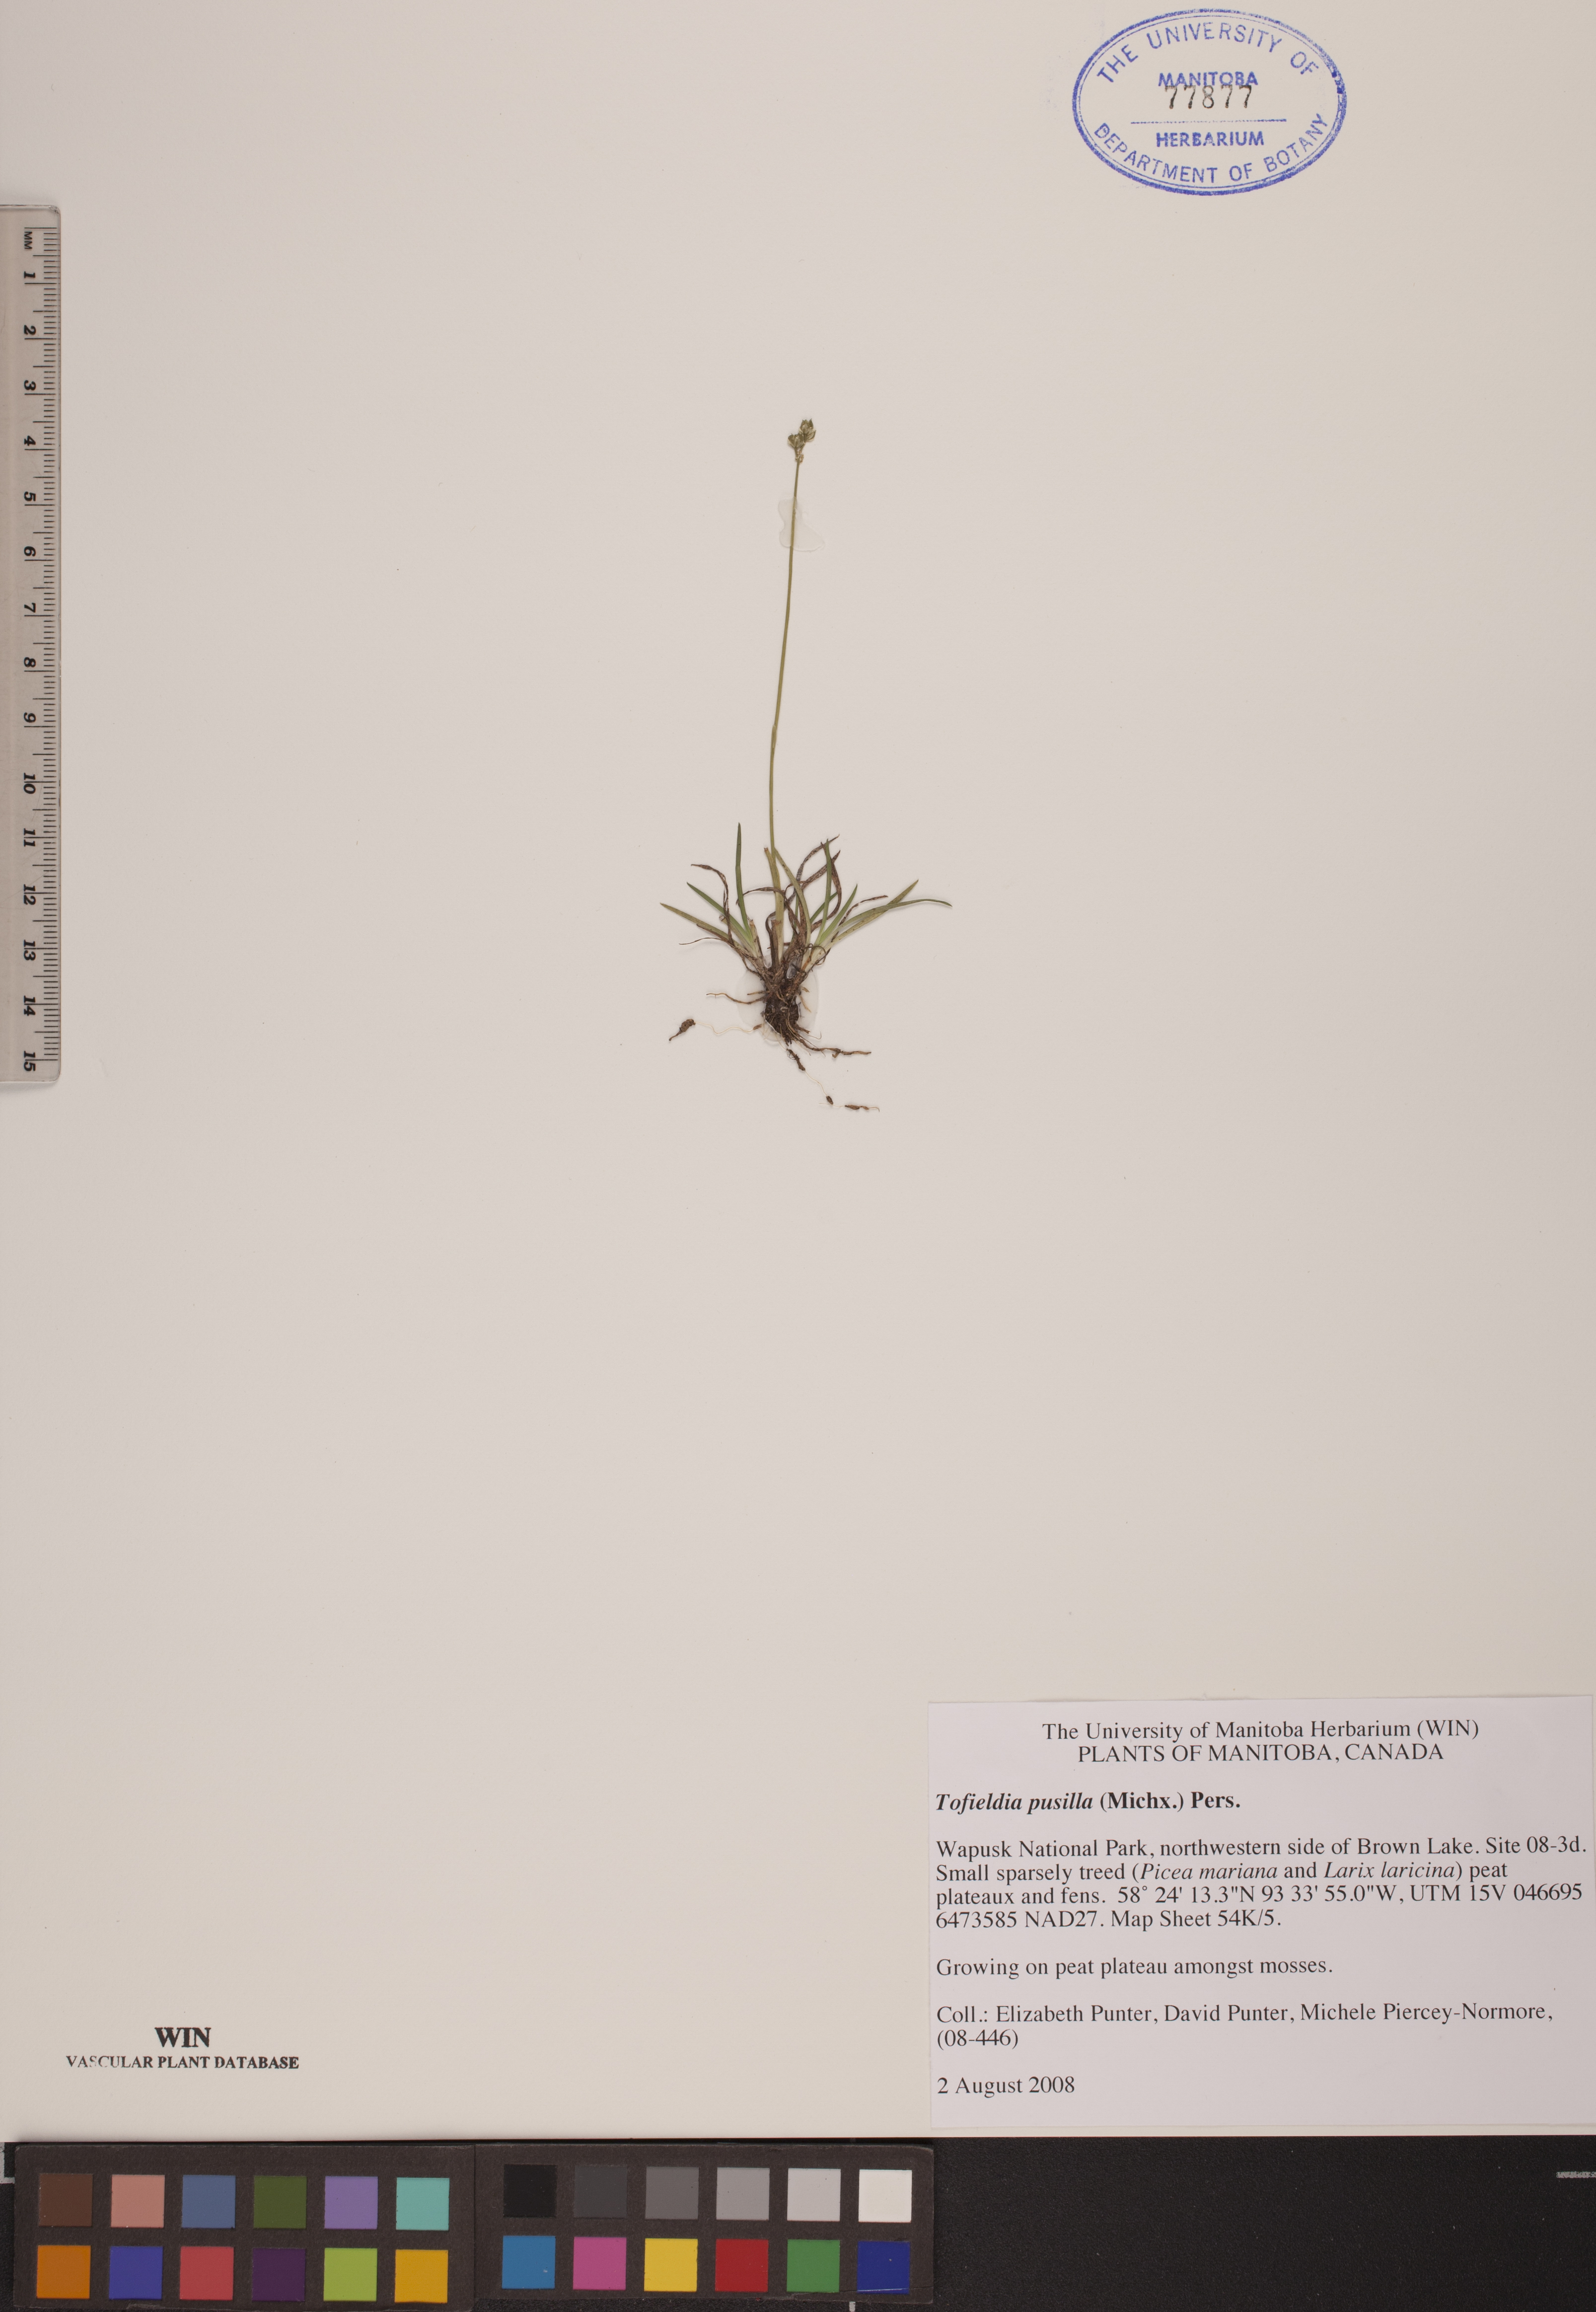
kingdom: Plantae
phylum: Tracheophyta
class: Liliopsida
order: Alismatales
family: Tofieldiaceae
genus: Tofieldia
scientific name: Tofieldia pusilla
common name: Scottish false asphodel
